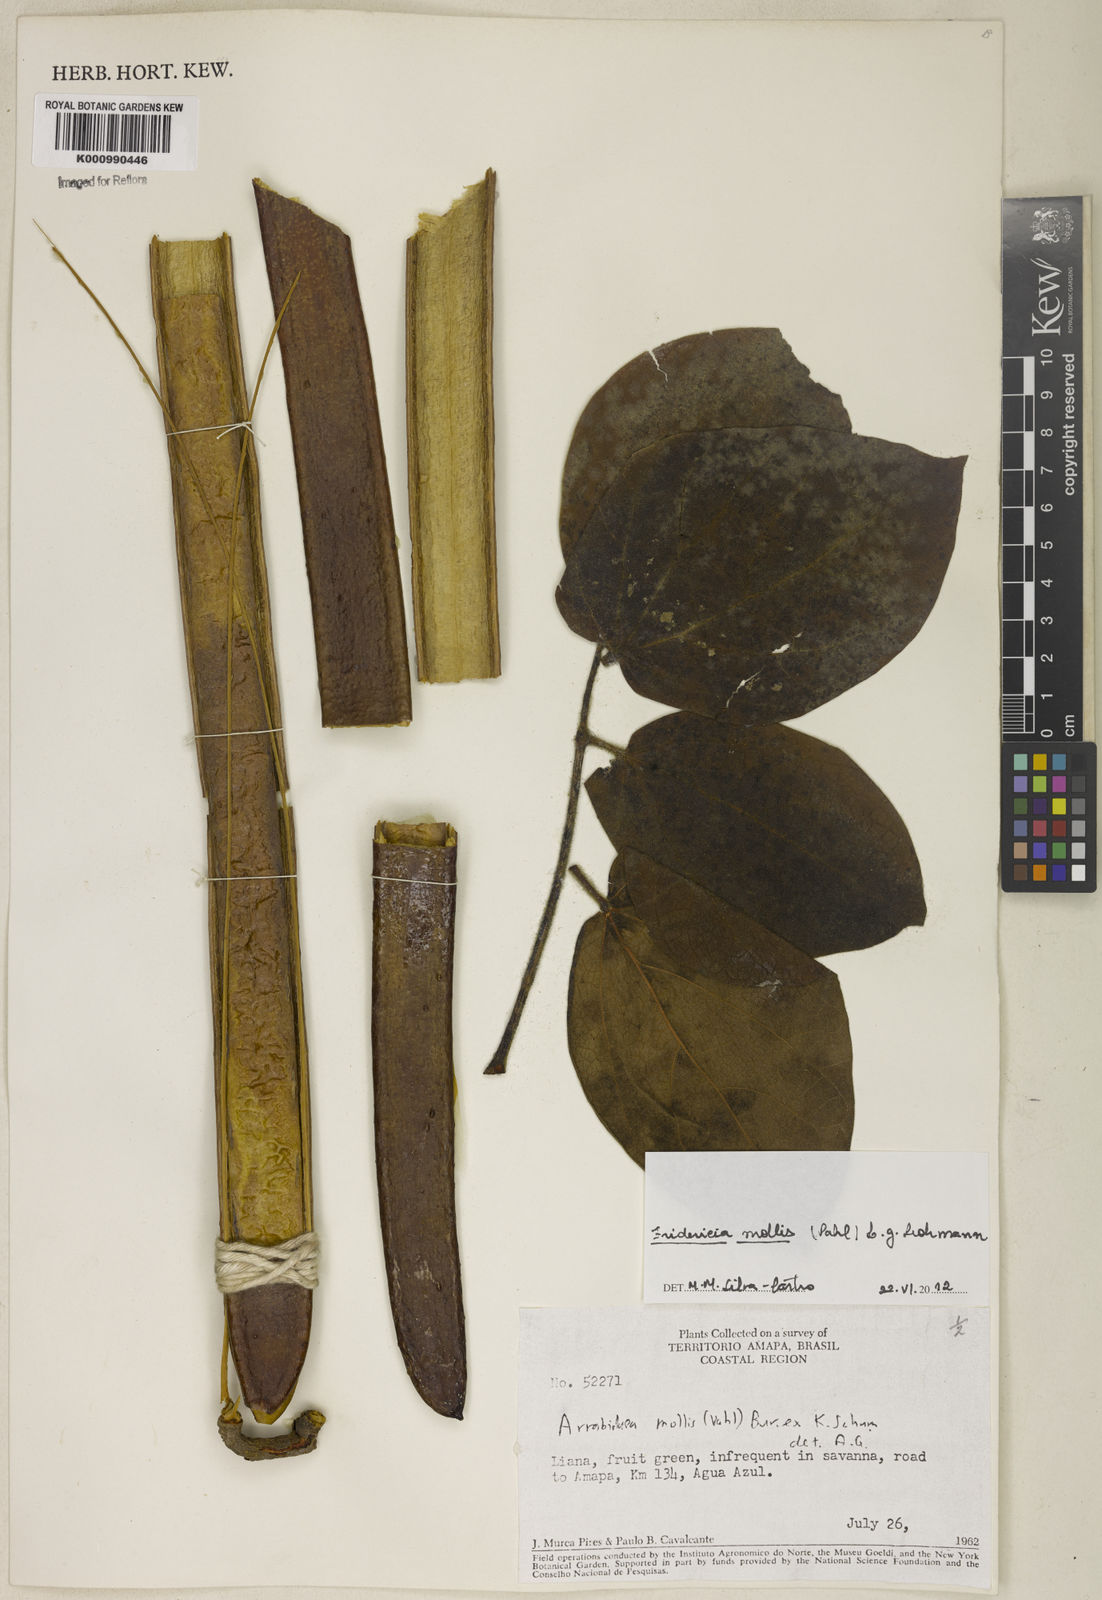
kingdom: Plantae
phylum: Tracheophyta
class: Magnoliopsida
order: Lamiales
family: Bignoniaceae
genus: Fridericia
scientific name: Fridericia mollis
